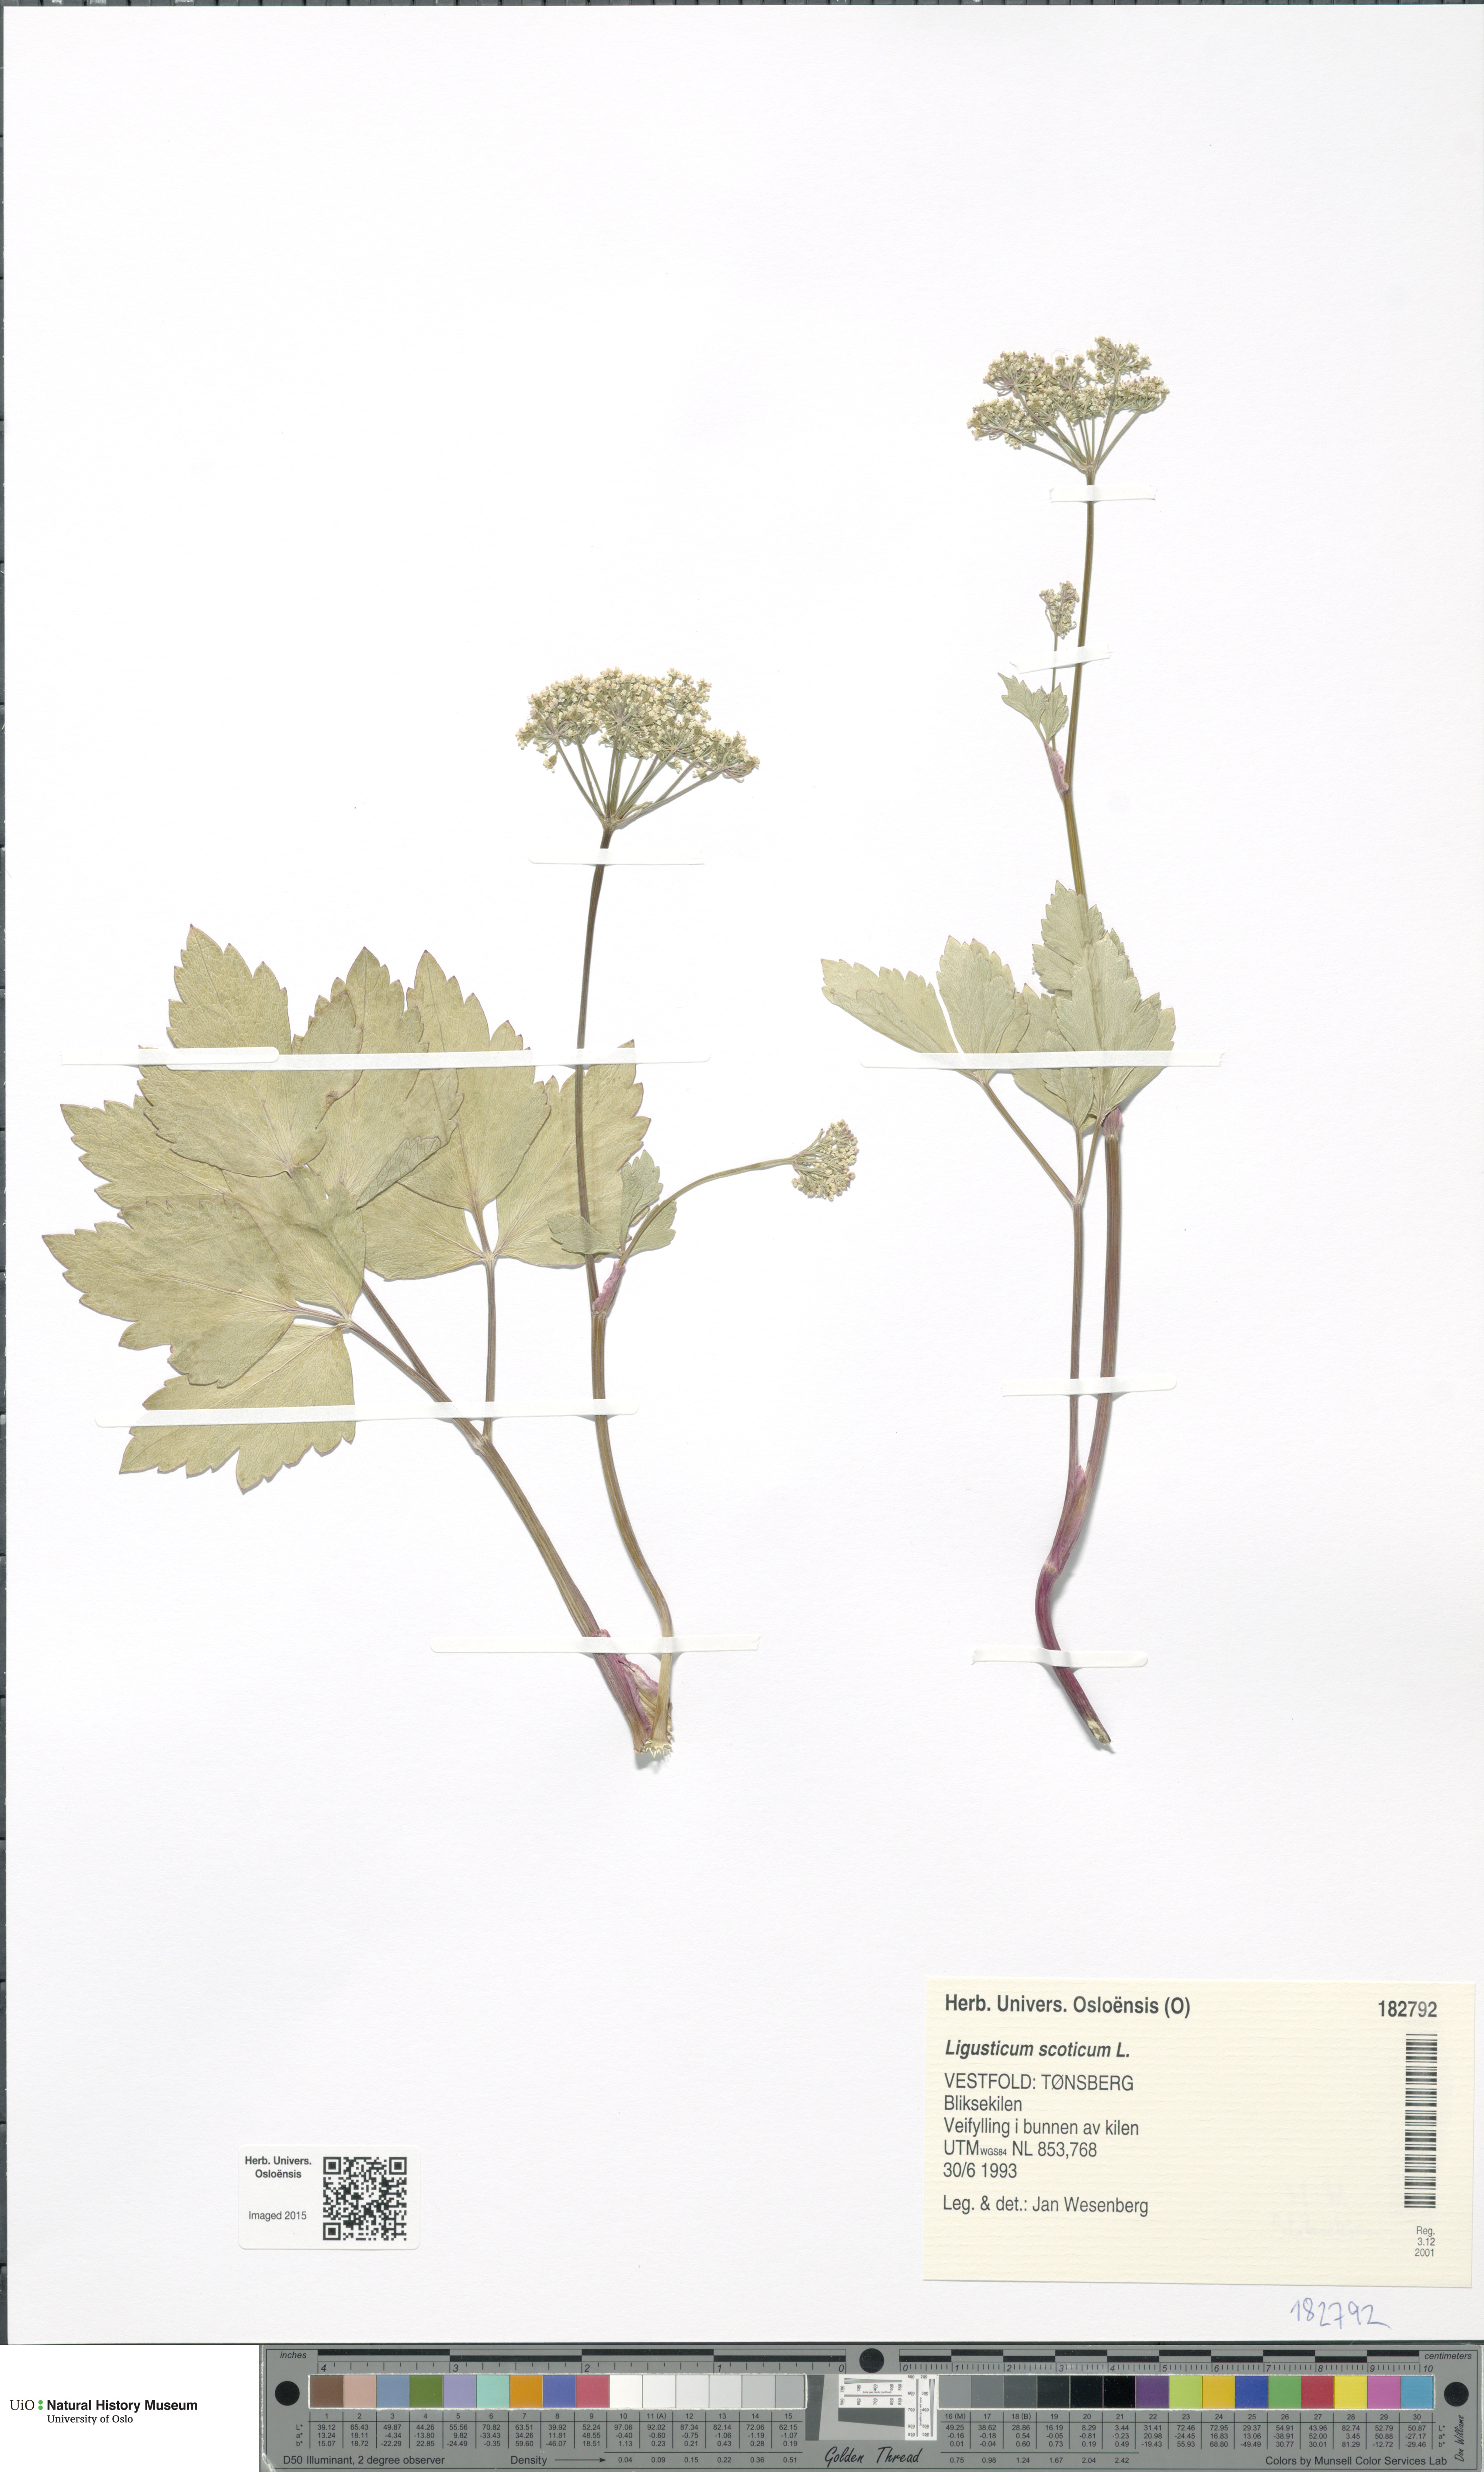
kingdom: Plantae
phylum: Tracheophyta
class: Magnoliopsida
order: Apiales
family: Apiaceae
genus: Ligusticum
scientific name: Ligusticum scothicum
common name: Beach lovage
